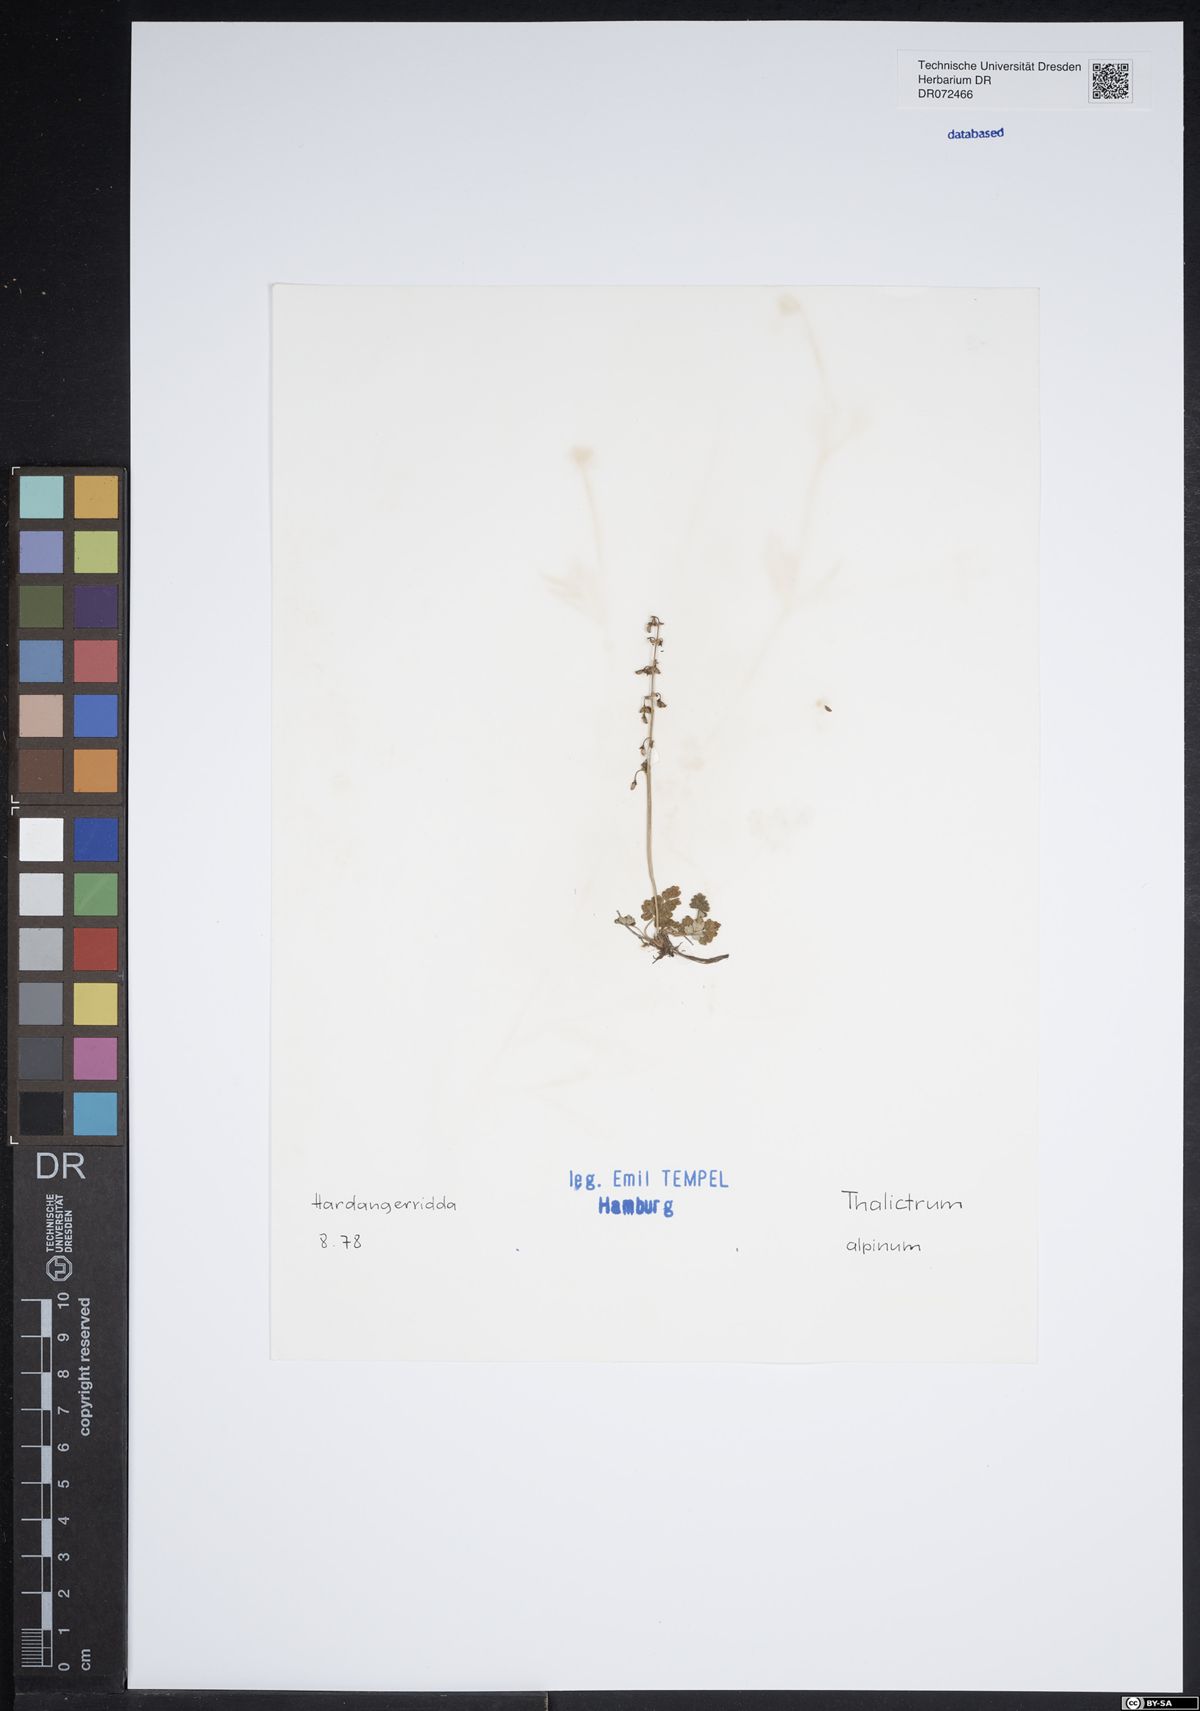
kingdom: Plantae
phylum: Tracheophyta
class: Magnoliopsida
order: Ranunculales
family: Ranunculaceae
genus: Thalictrum
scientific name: Thalictrum alpinum
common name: Alpine meadow-rue
